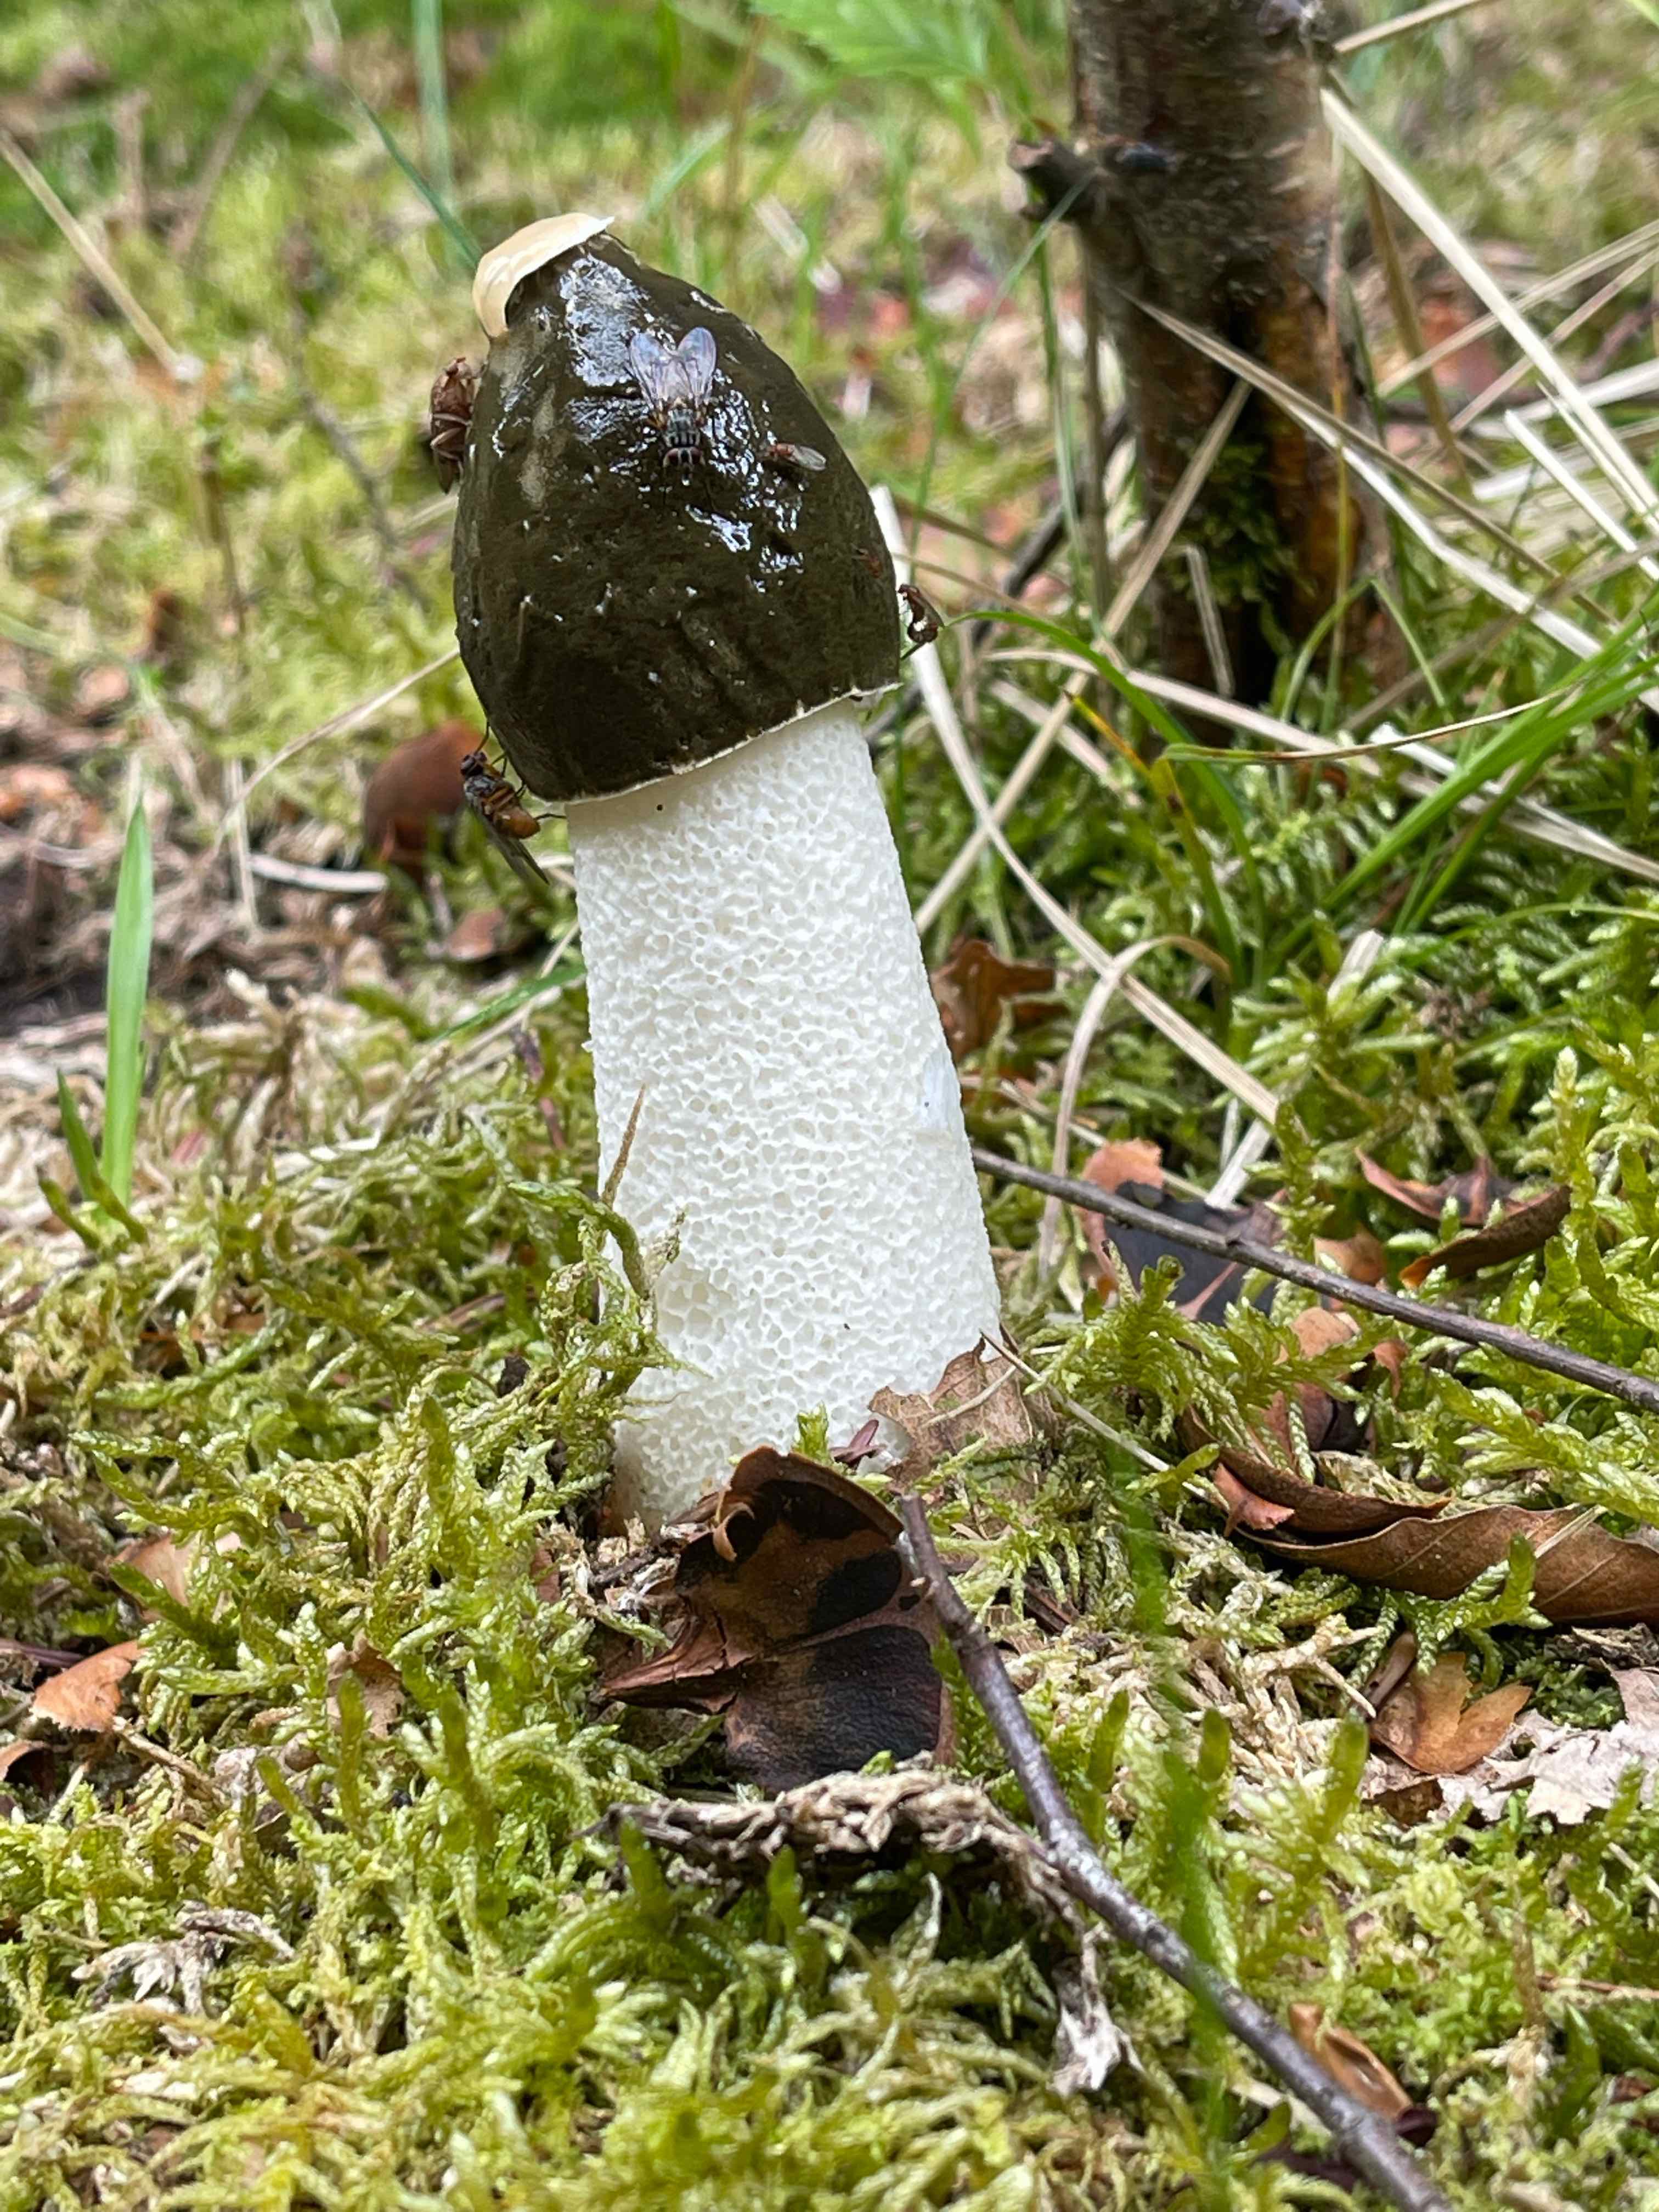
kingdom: Fungi
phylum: Basidiomycota
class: Agaricomycetes
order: Phallales
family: Phallaceae
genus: Phallus
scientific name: Phallus impudicus
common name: almindelig stinksvamp
